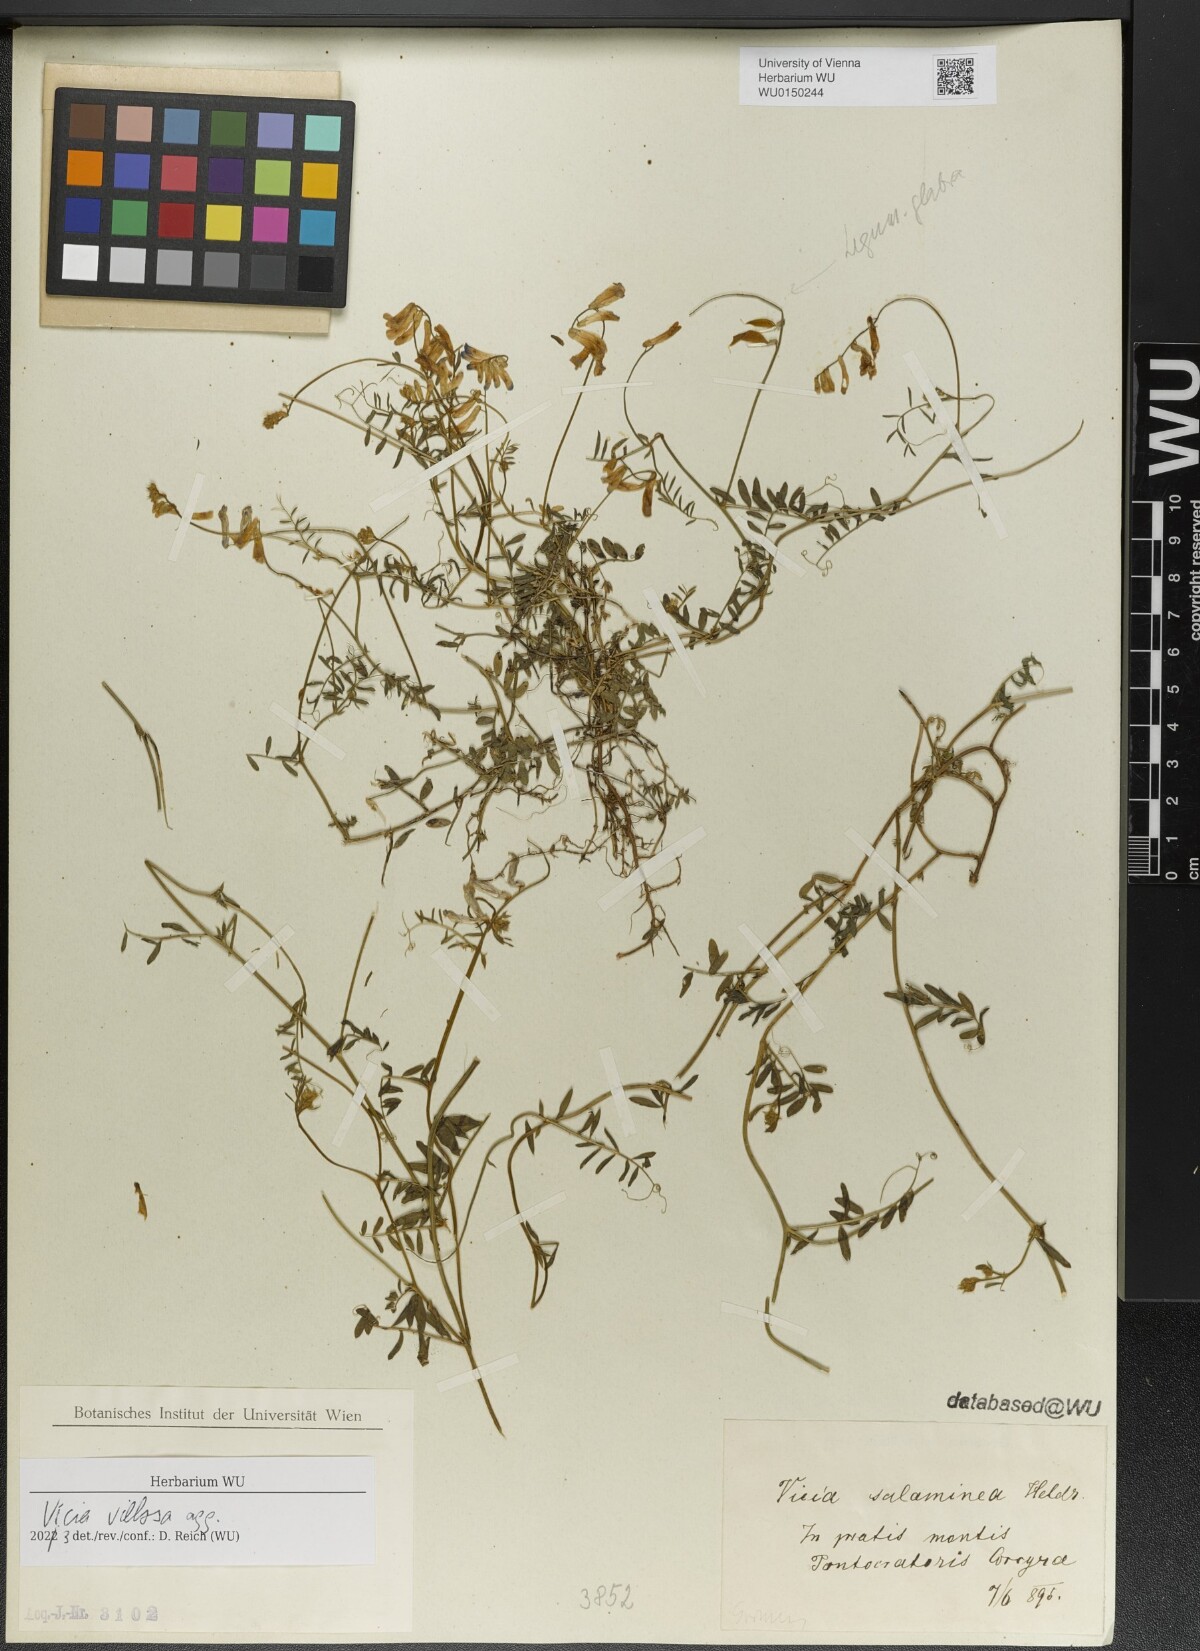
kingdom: Plantae
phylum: Tracheophyta
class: Magnoliopsida
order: Fabales
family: Fabaceae
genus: Vicia
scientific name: Vicia villosa
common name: Fodder vetch
